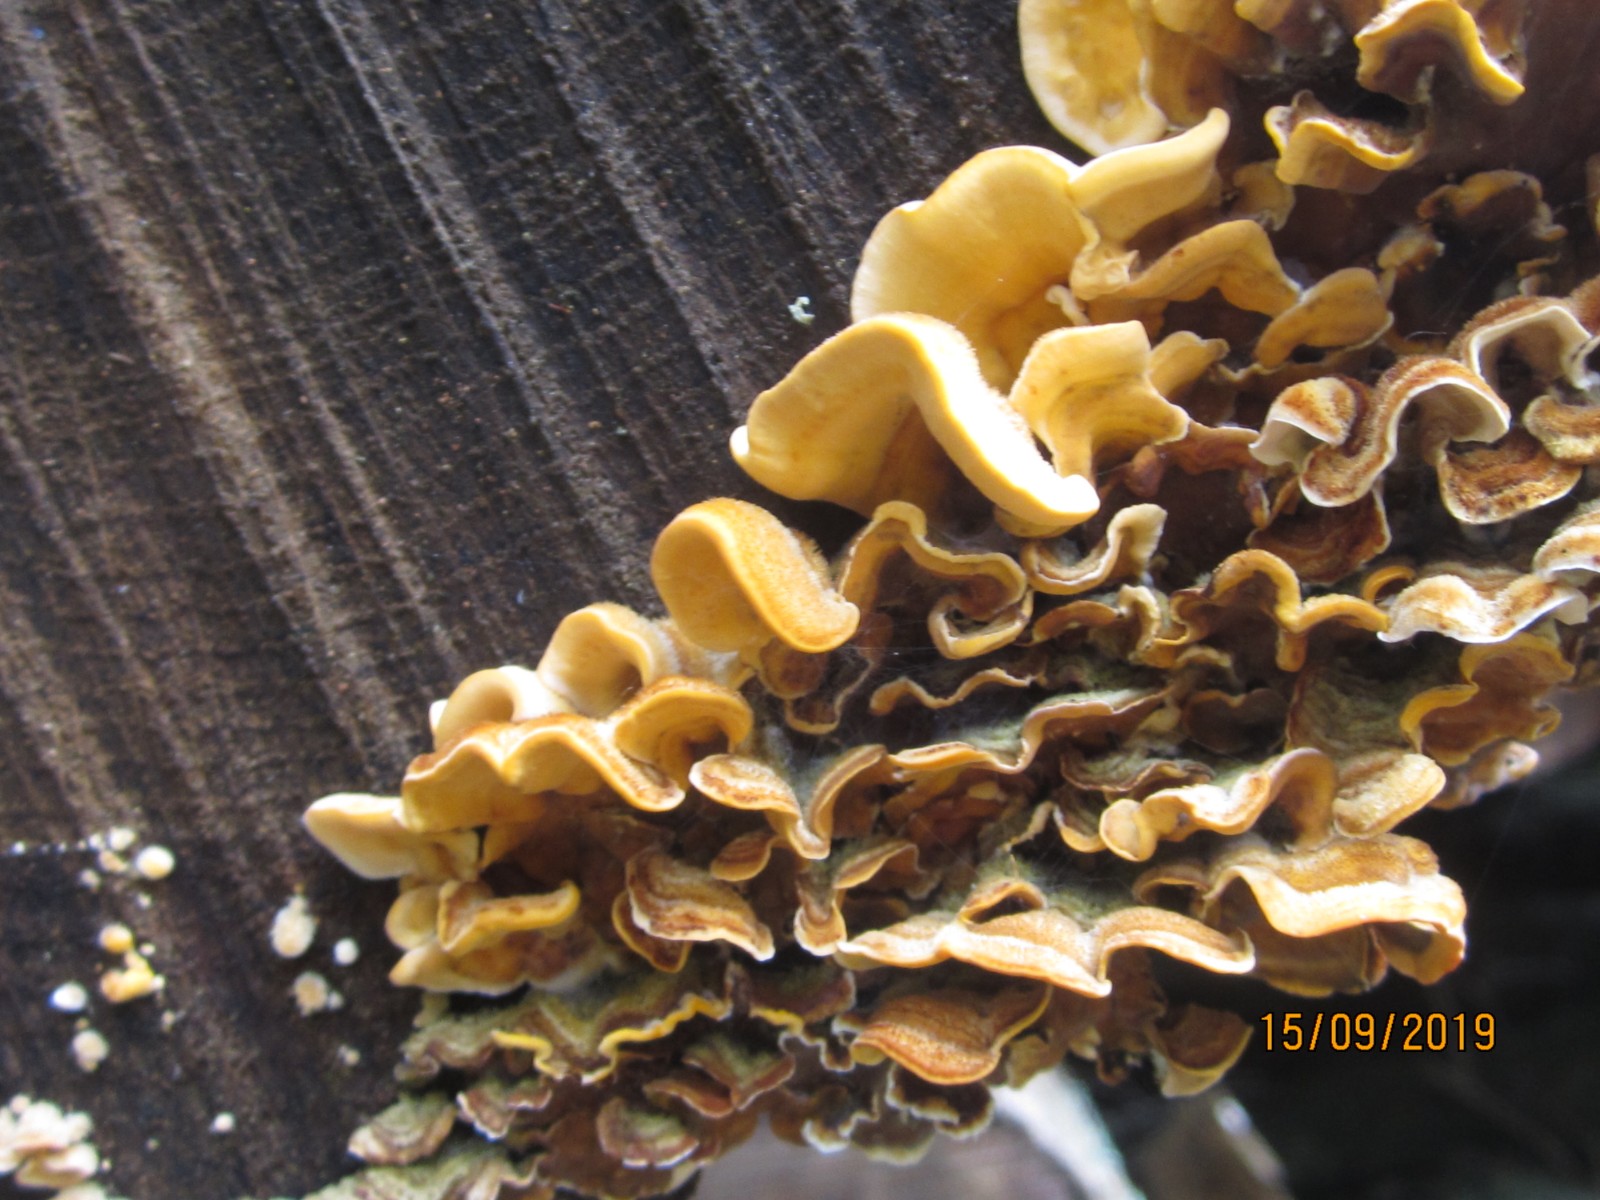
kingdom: Fungi
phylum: Basidiomycota
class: Agaricomycetes
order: Russulales
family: Stereaceae
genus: Stereum
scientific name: Stereum hirsutum
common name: håret lædersvamp
